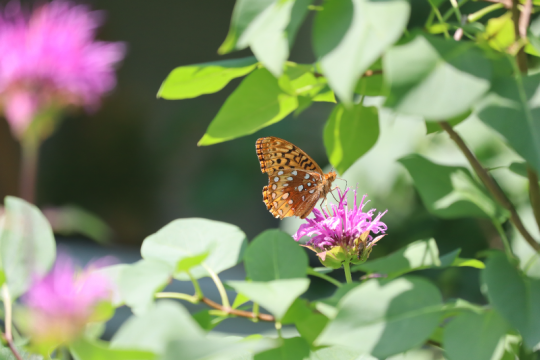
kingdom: Animalia
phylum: Arthropoda
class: Insecta
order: Lepidoptera
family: Nymphalidae
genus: Speyeria
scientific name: Speyeria cybele
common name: Great Spangled Fritillary
